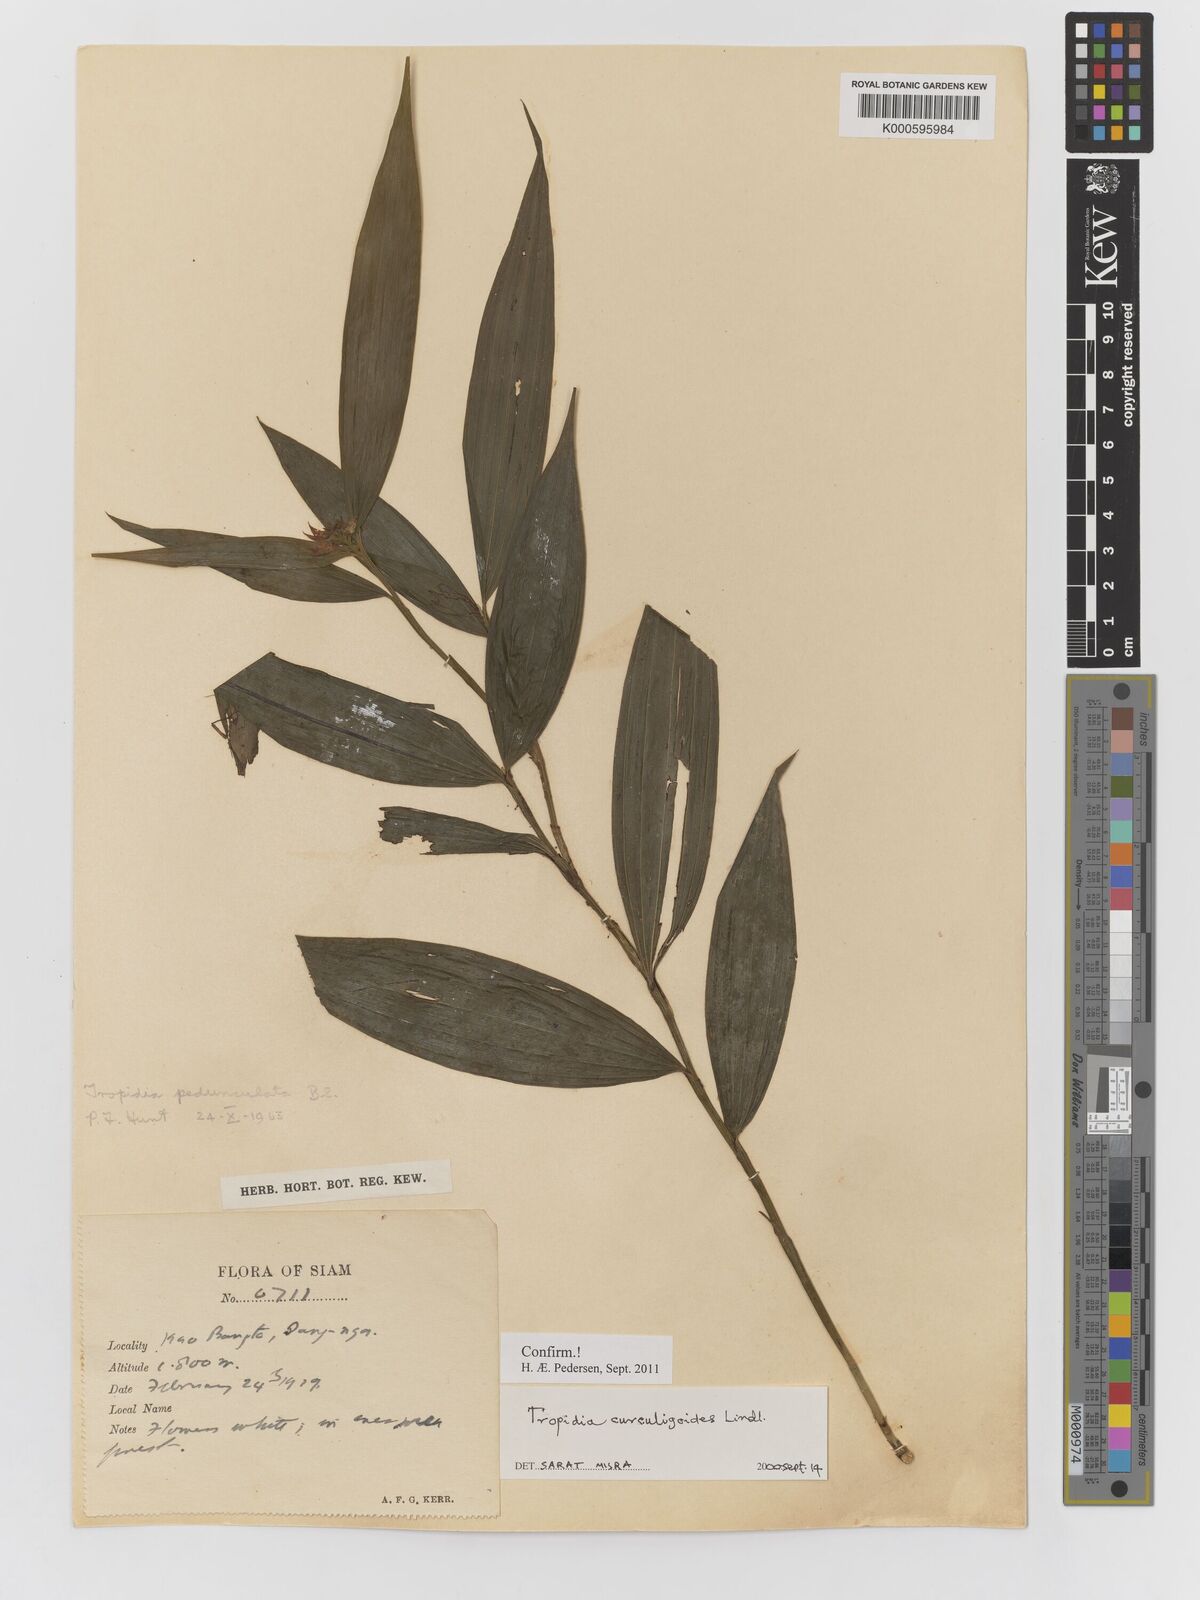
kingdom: Plantae
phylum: Tracheophyta
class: Liliopsida
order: Asparagales
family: Orchidaceae
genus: Tropidia
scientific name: Tropidia curculigoides
